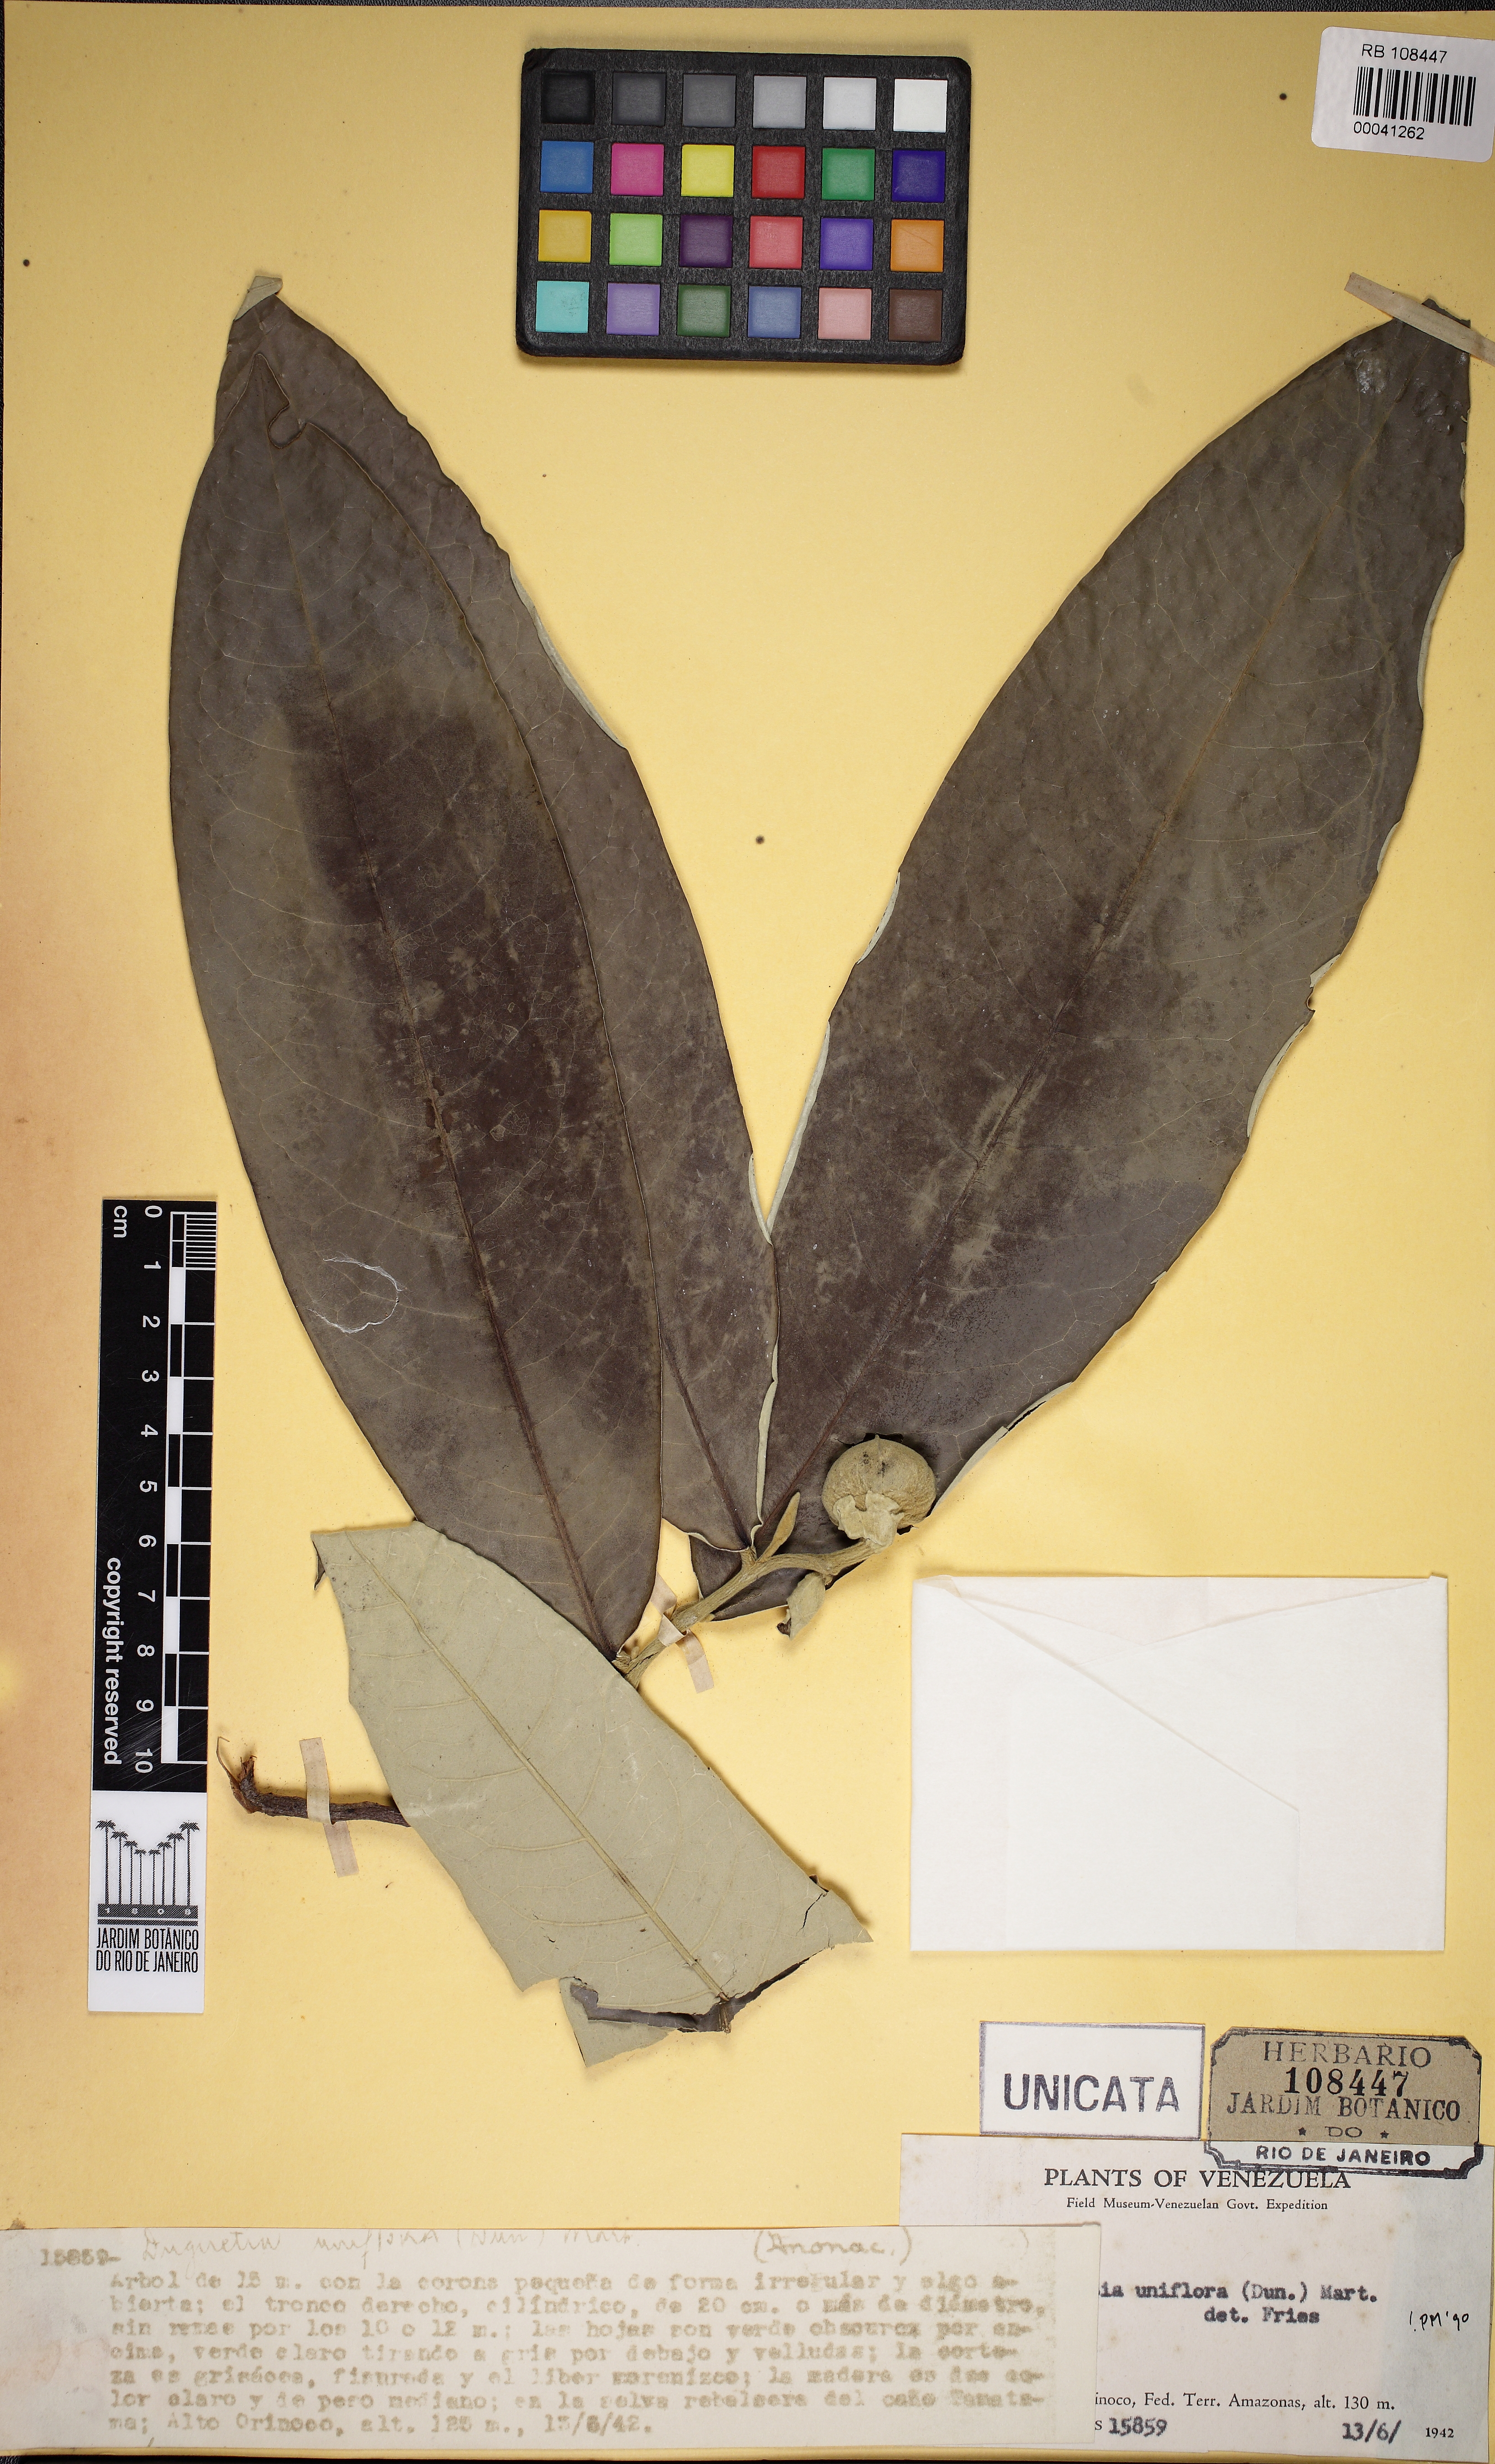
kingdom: Plantae
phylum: Tracheophyta
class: Magnoliopsida
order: Magnoliales
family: Annonaceae
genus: Duguetia
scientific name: Duguetia uniflora
